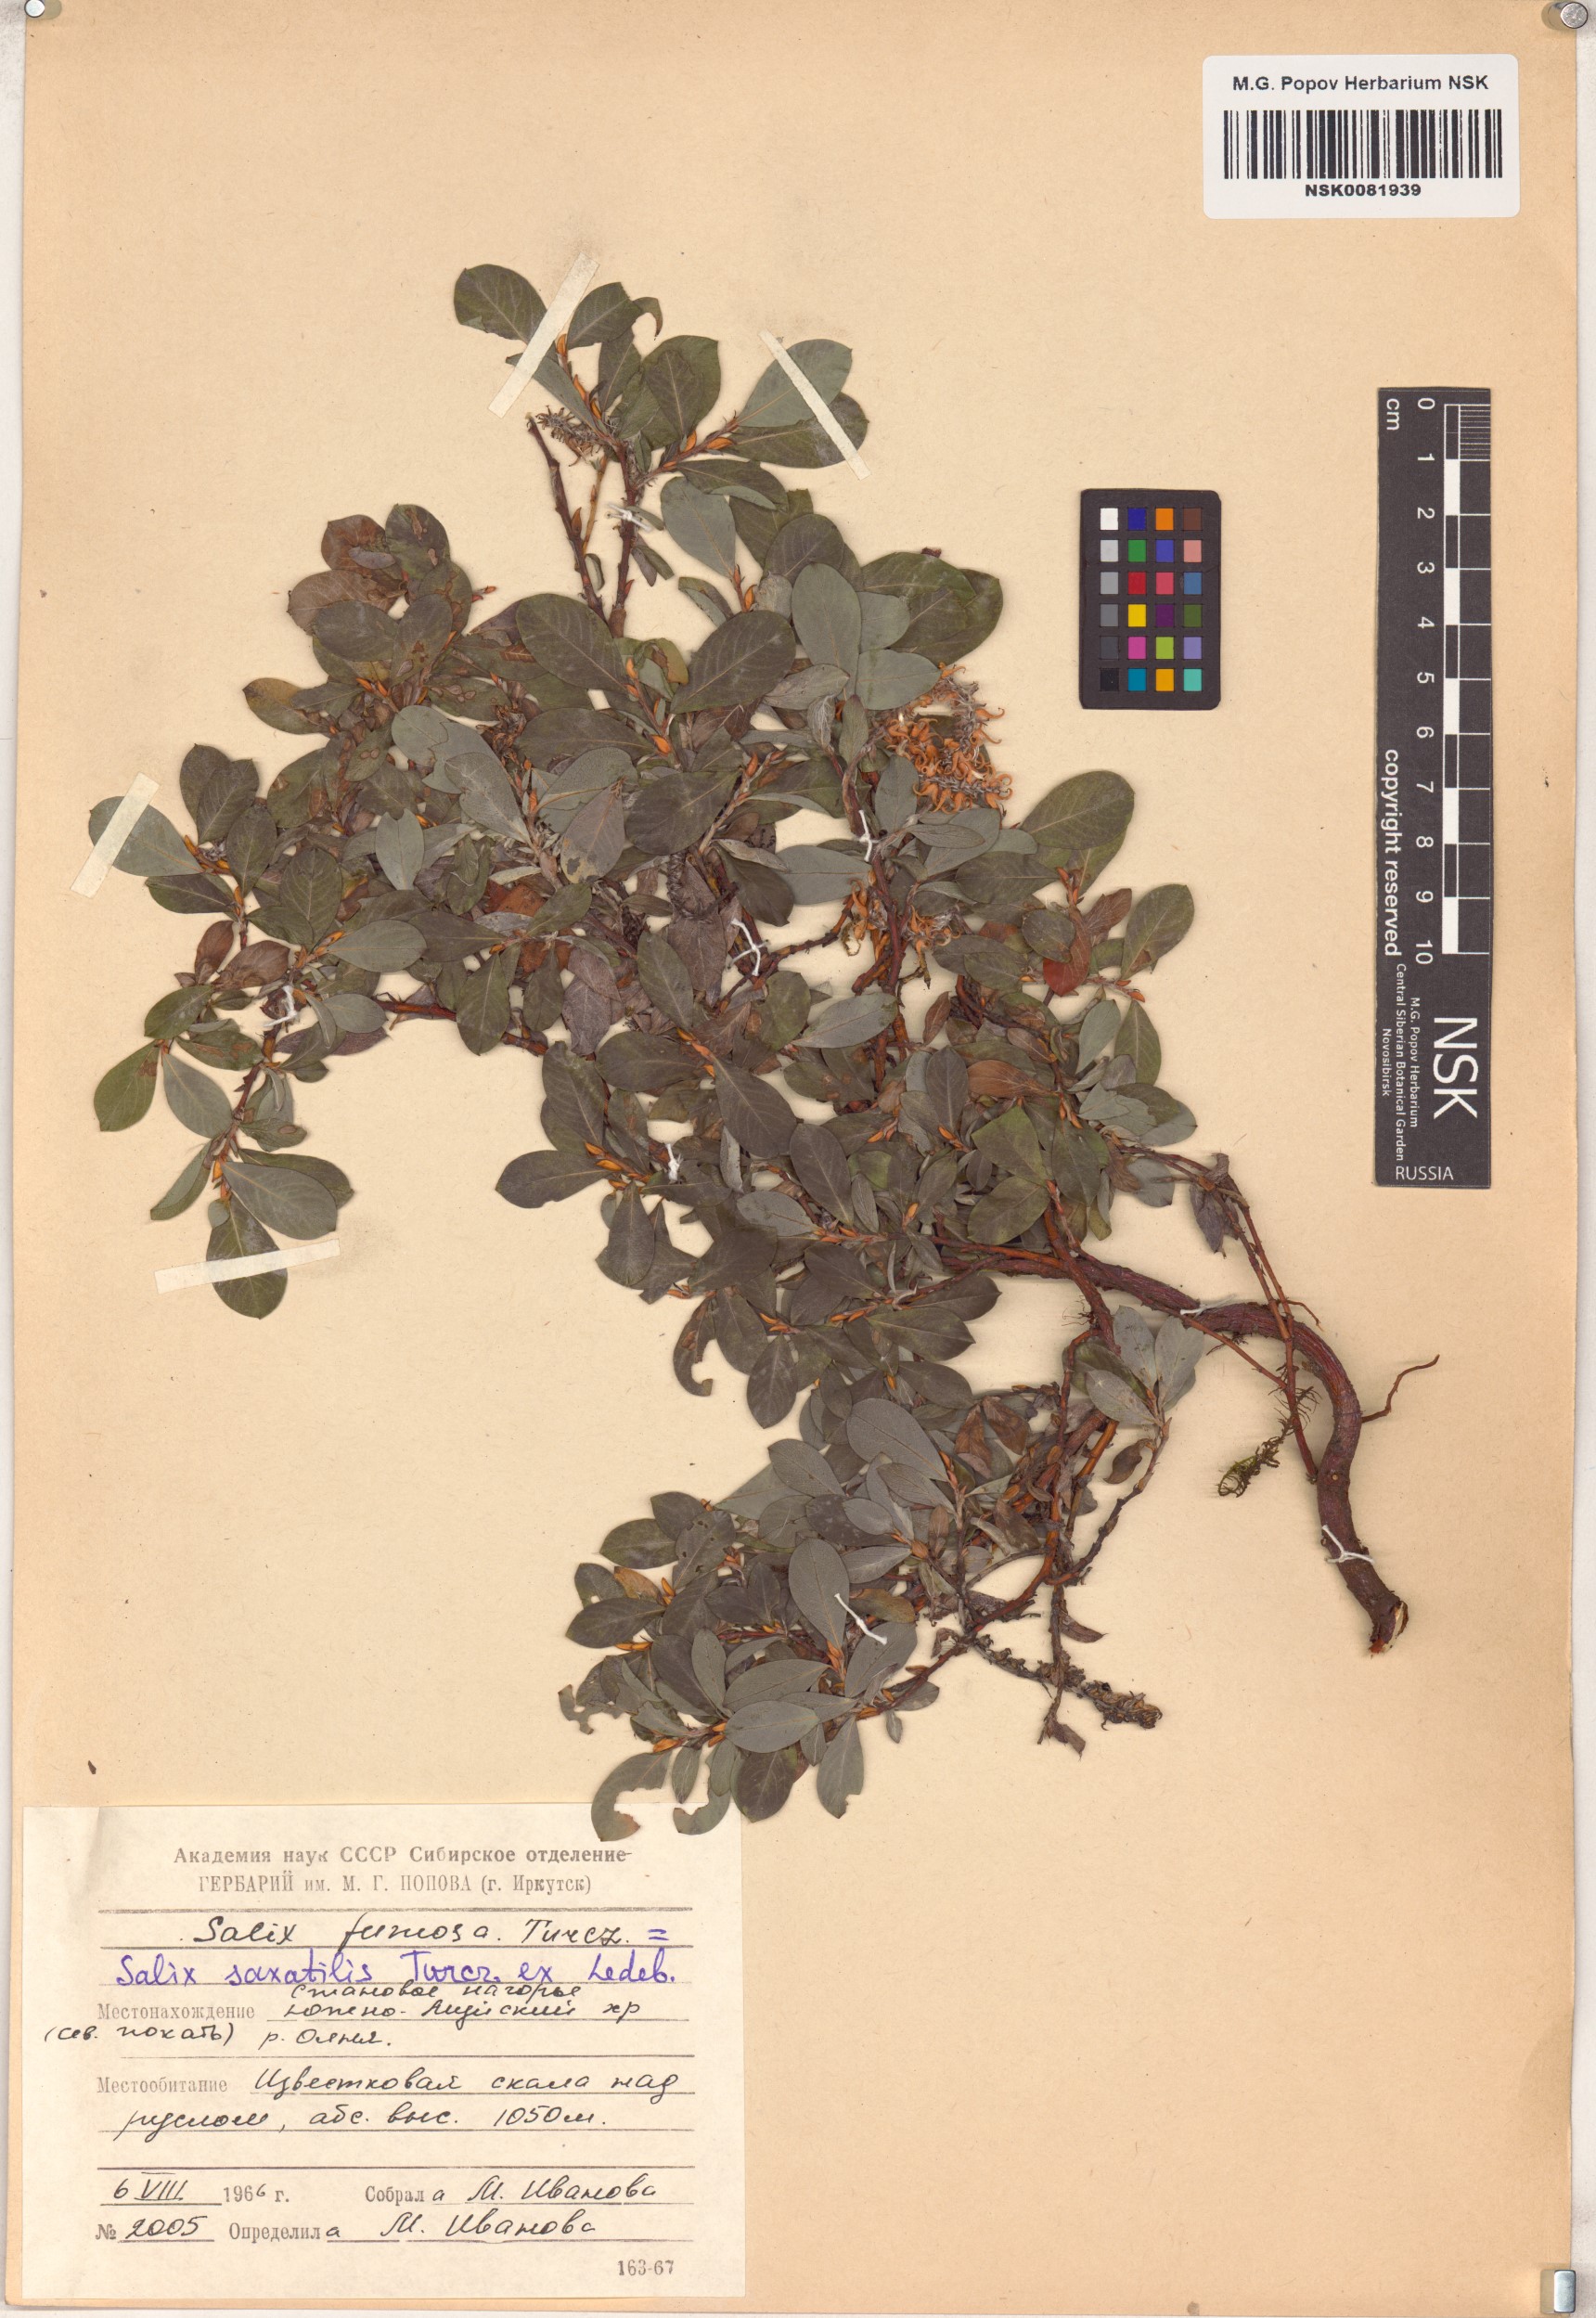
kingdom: Plantae
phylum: Tracheophyta
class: Magnoliopsida
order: Malpighiales
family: Salicaceae
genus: Salix
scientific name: Salix saxatilis
